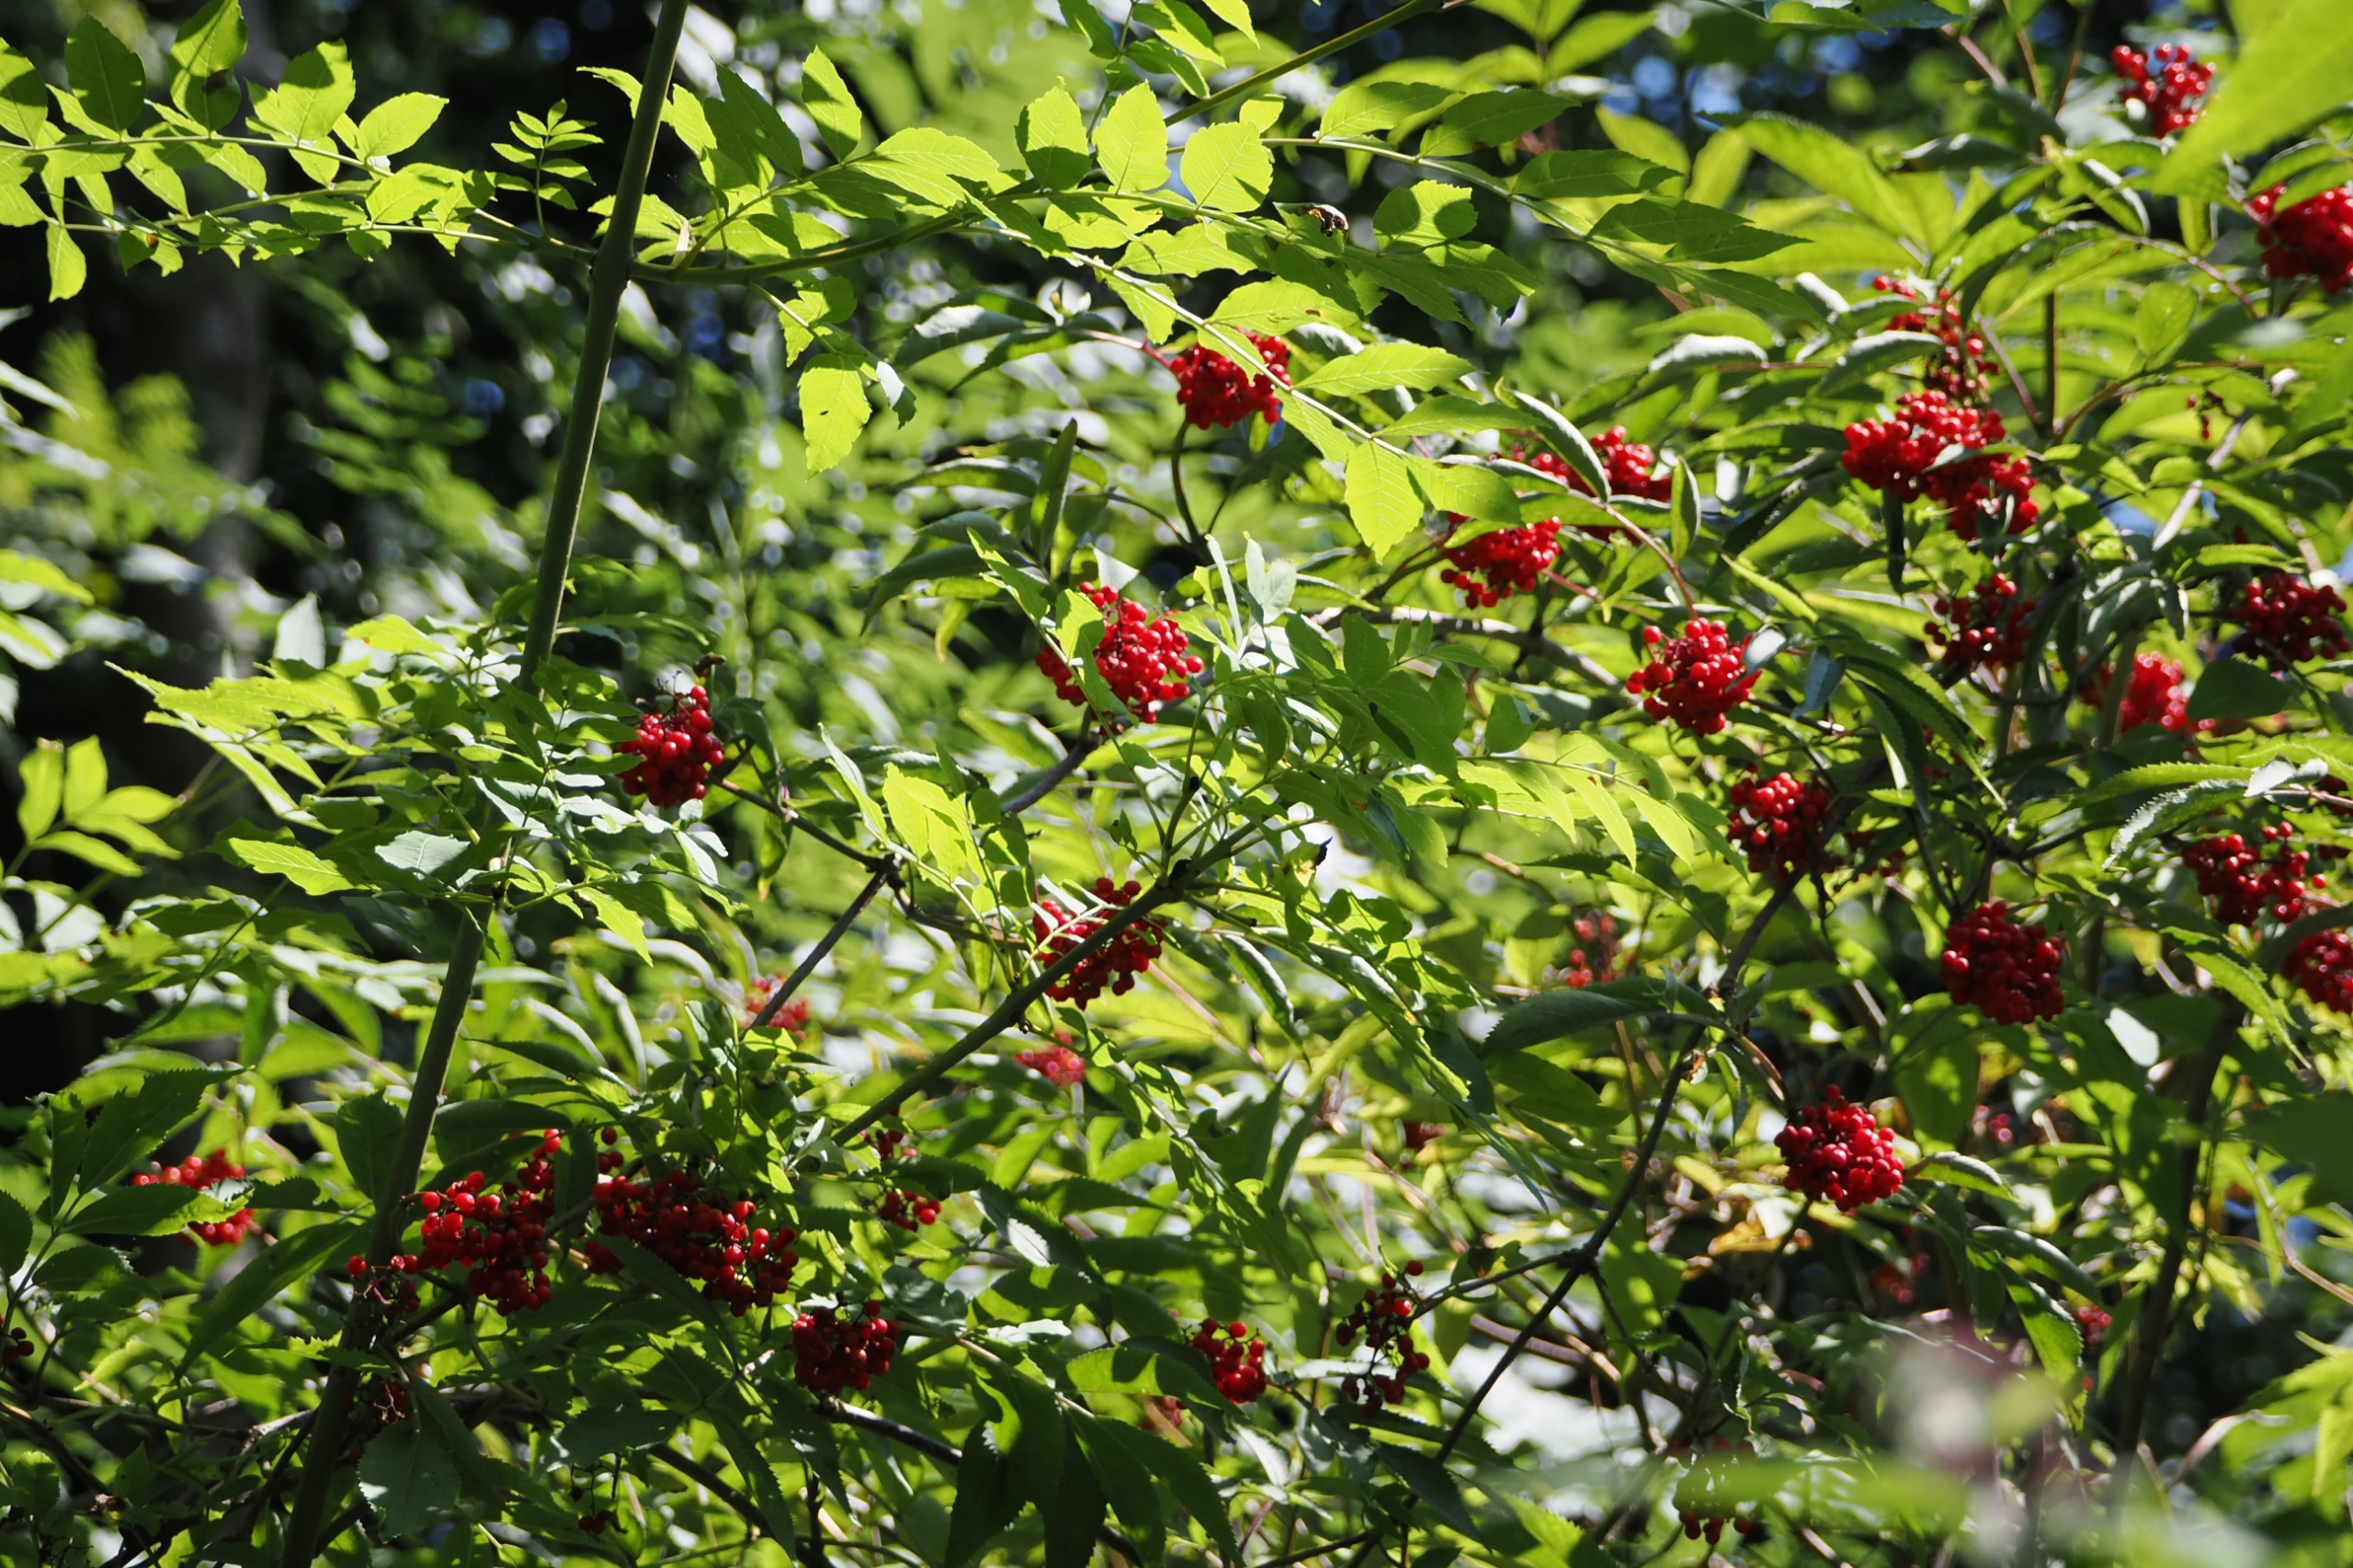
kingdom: Plantae
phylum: Tracheophyta
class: Magnoliopsida
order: Dipsacales
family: Viburnaceae
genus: Sambucus
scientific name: Sambucus racemosa
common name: Drue-hyld
